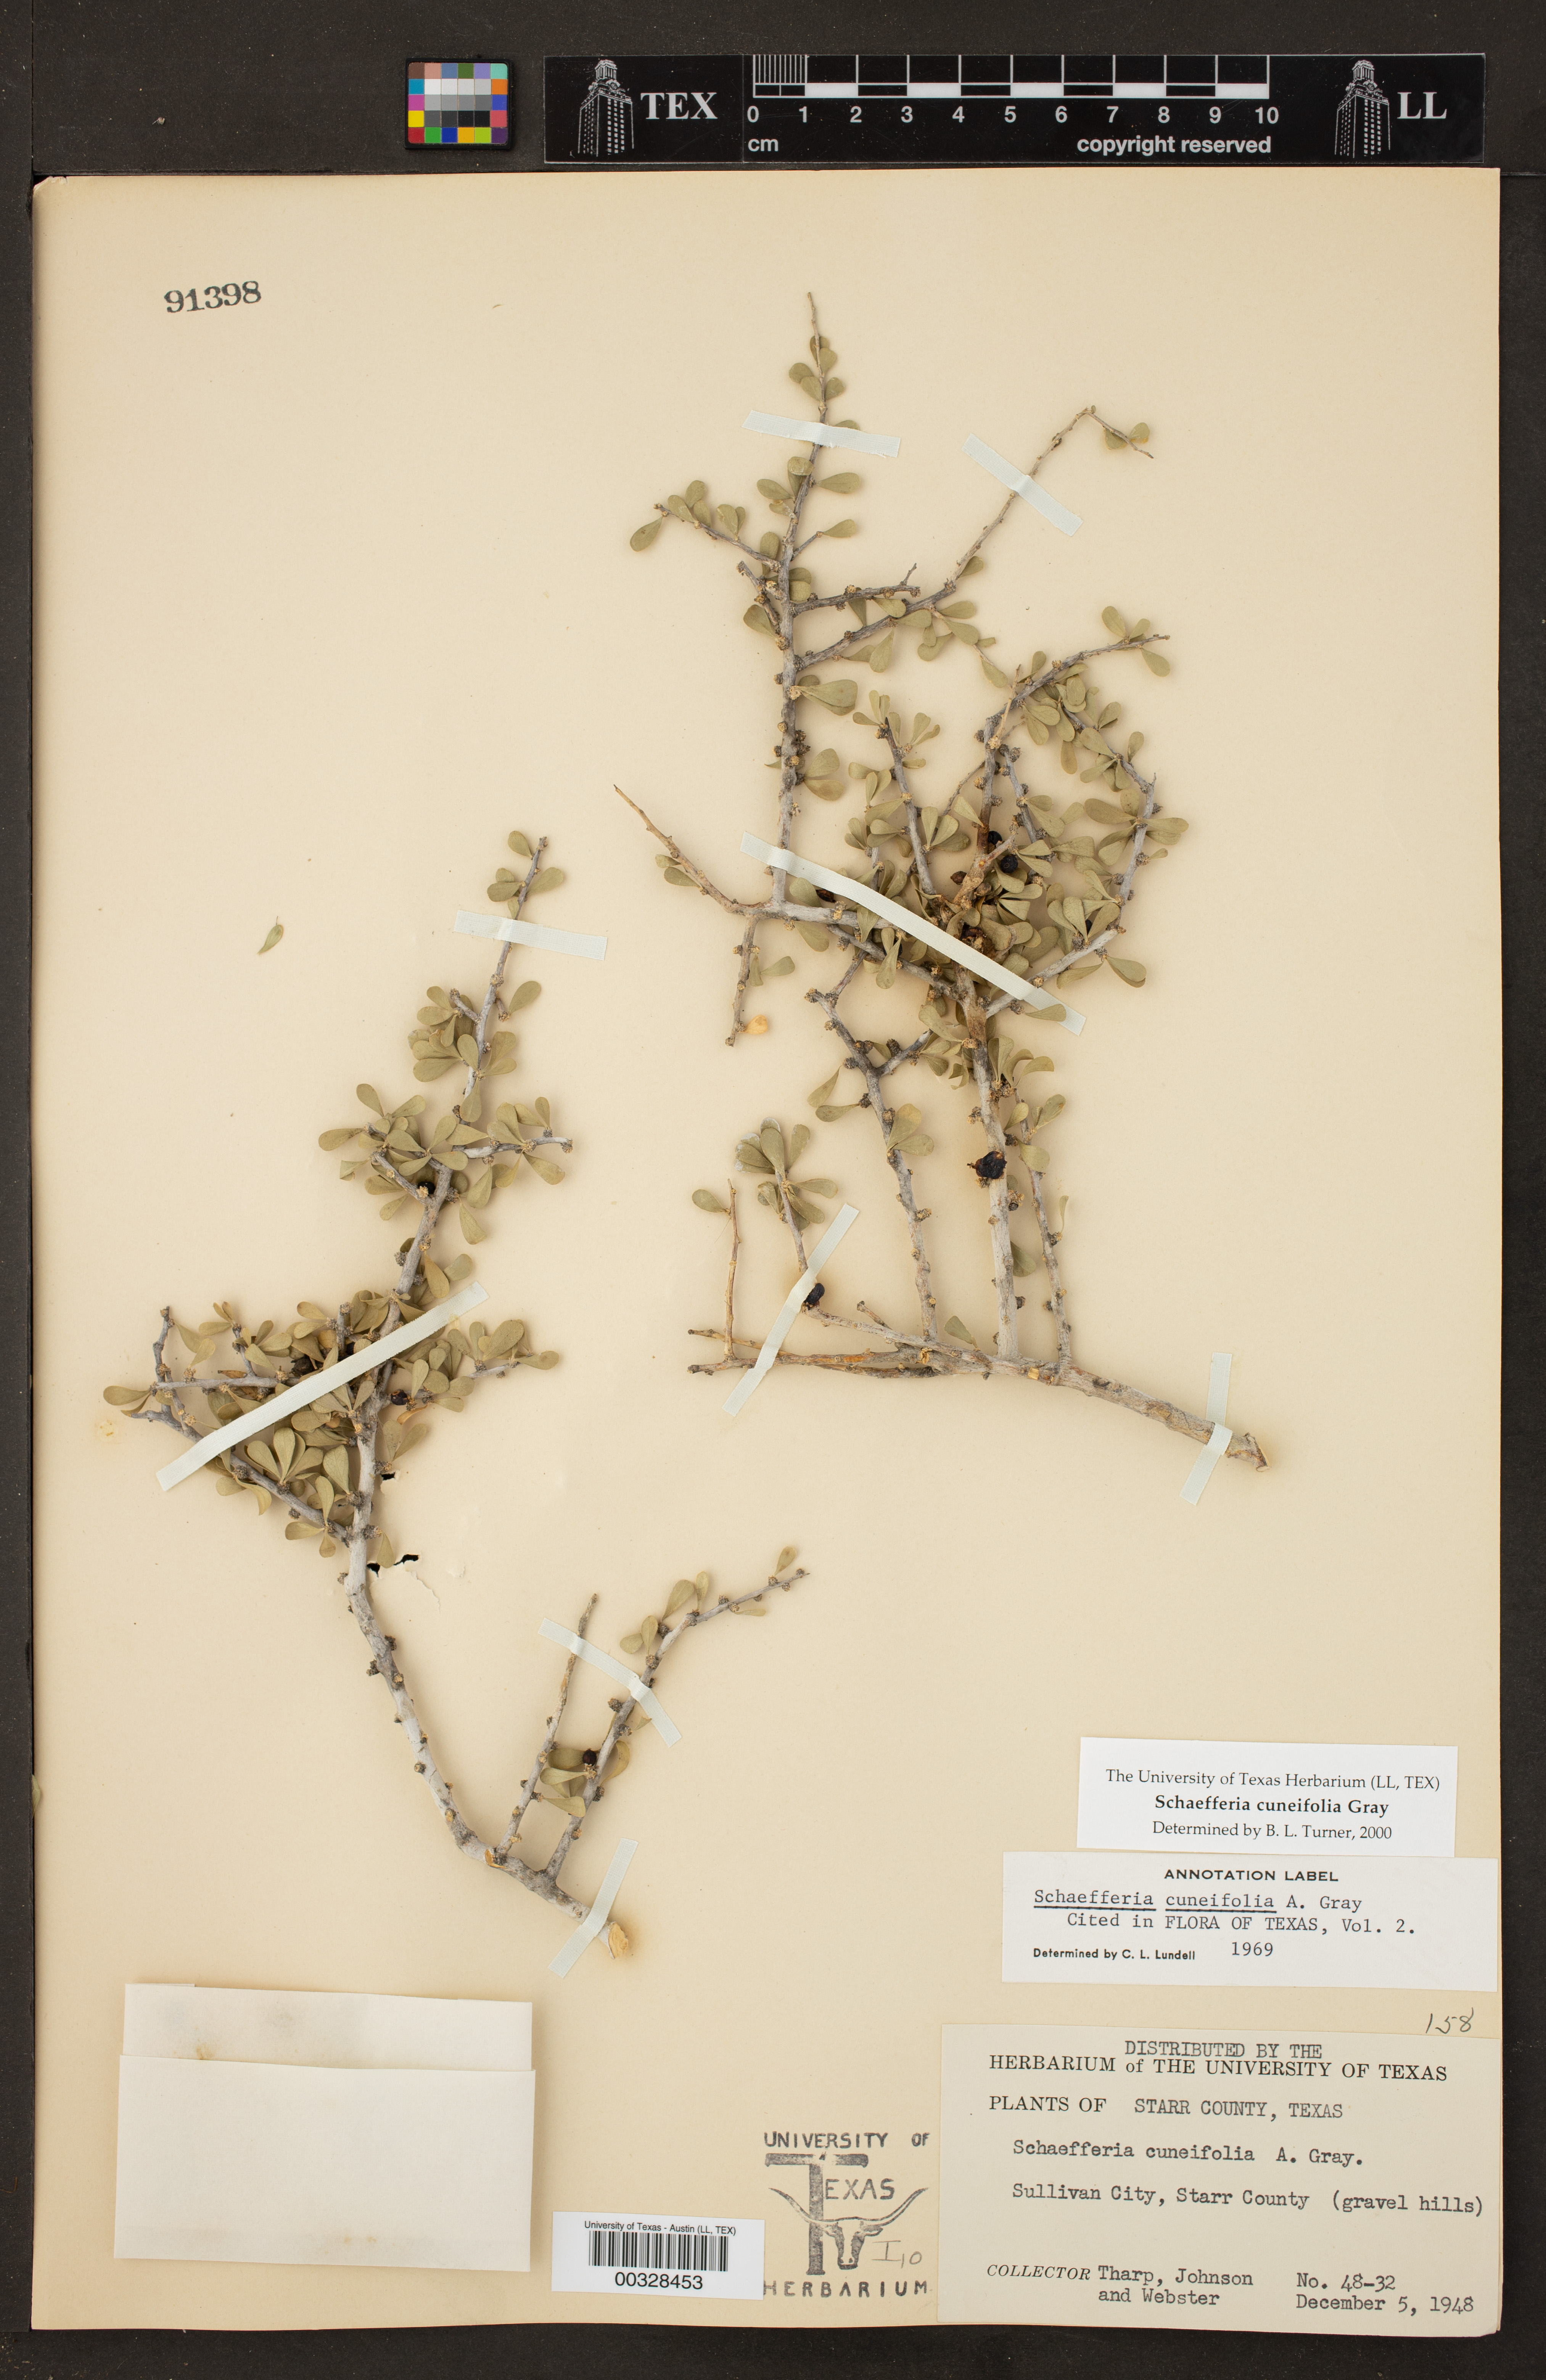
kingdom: Plantae
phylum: Tracheophyta
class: Magnoliopsida
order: Celastrales
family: Celastraceae
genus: Schaefferia
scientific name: Schaefferia cuneifolia
